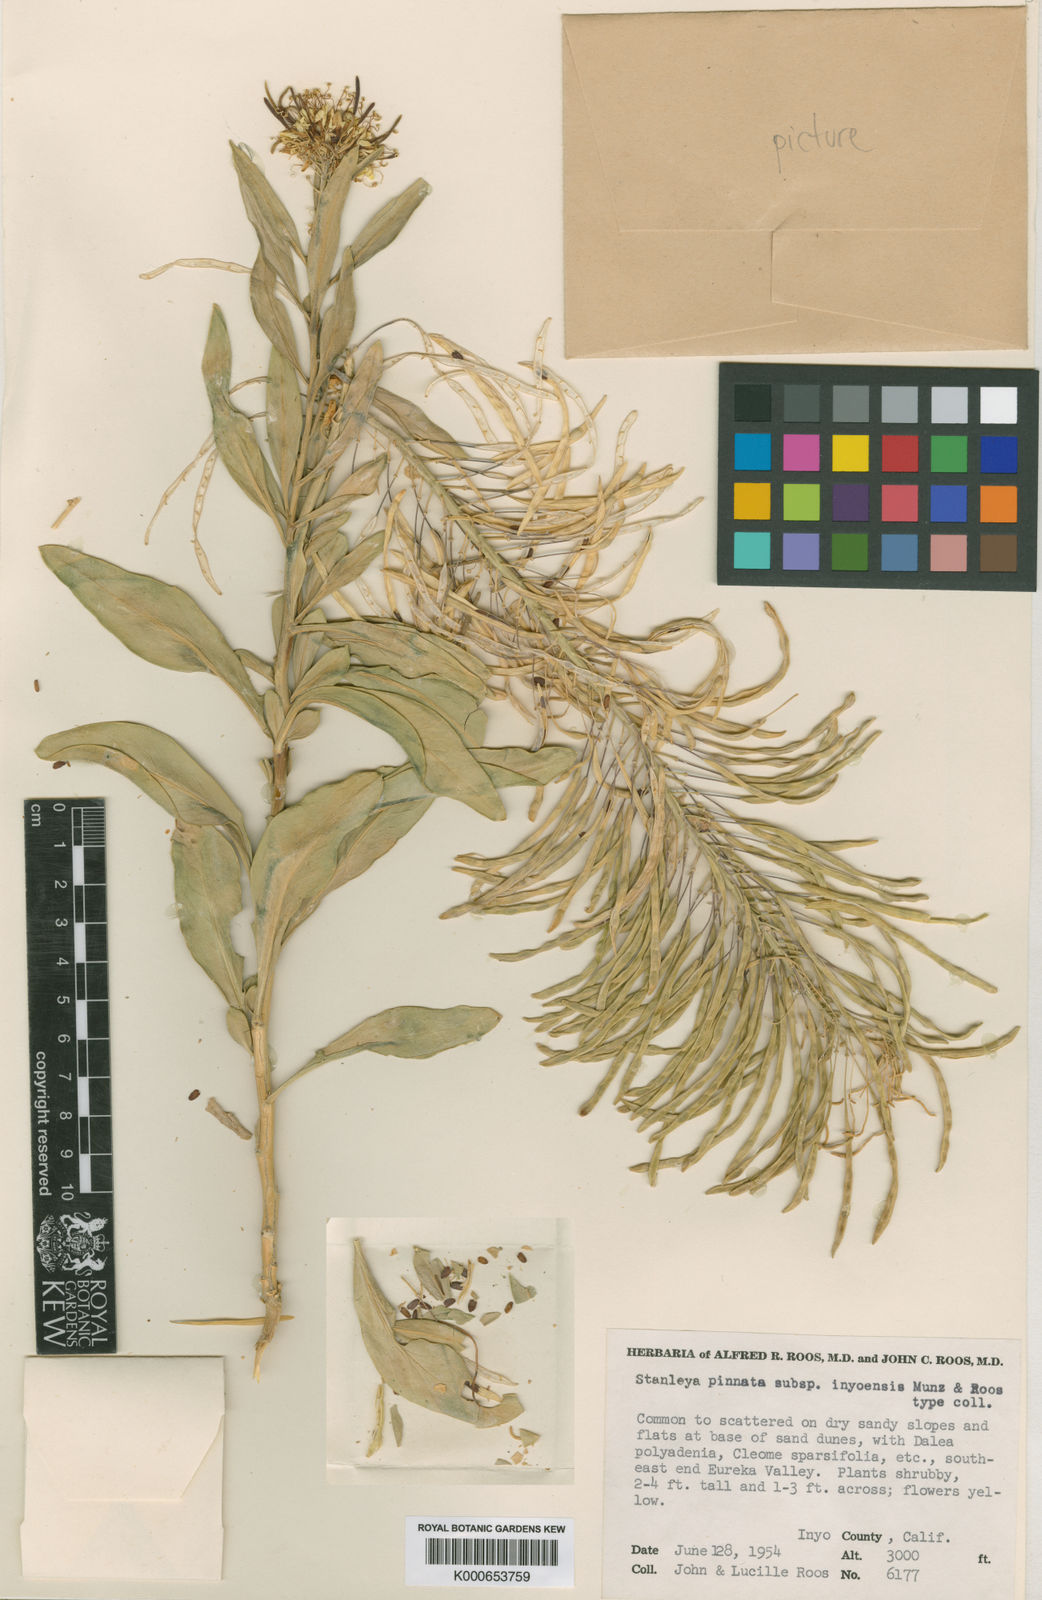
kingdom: Plantae
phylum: Tracheophyta
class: Magnoliopsida
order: Brassicales
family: Brassicaceae
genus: Stanleya
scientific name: Stanleya pinnata
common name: Prince's-plume
